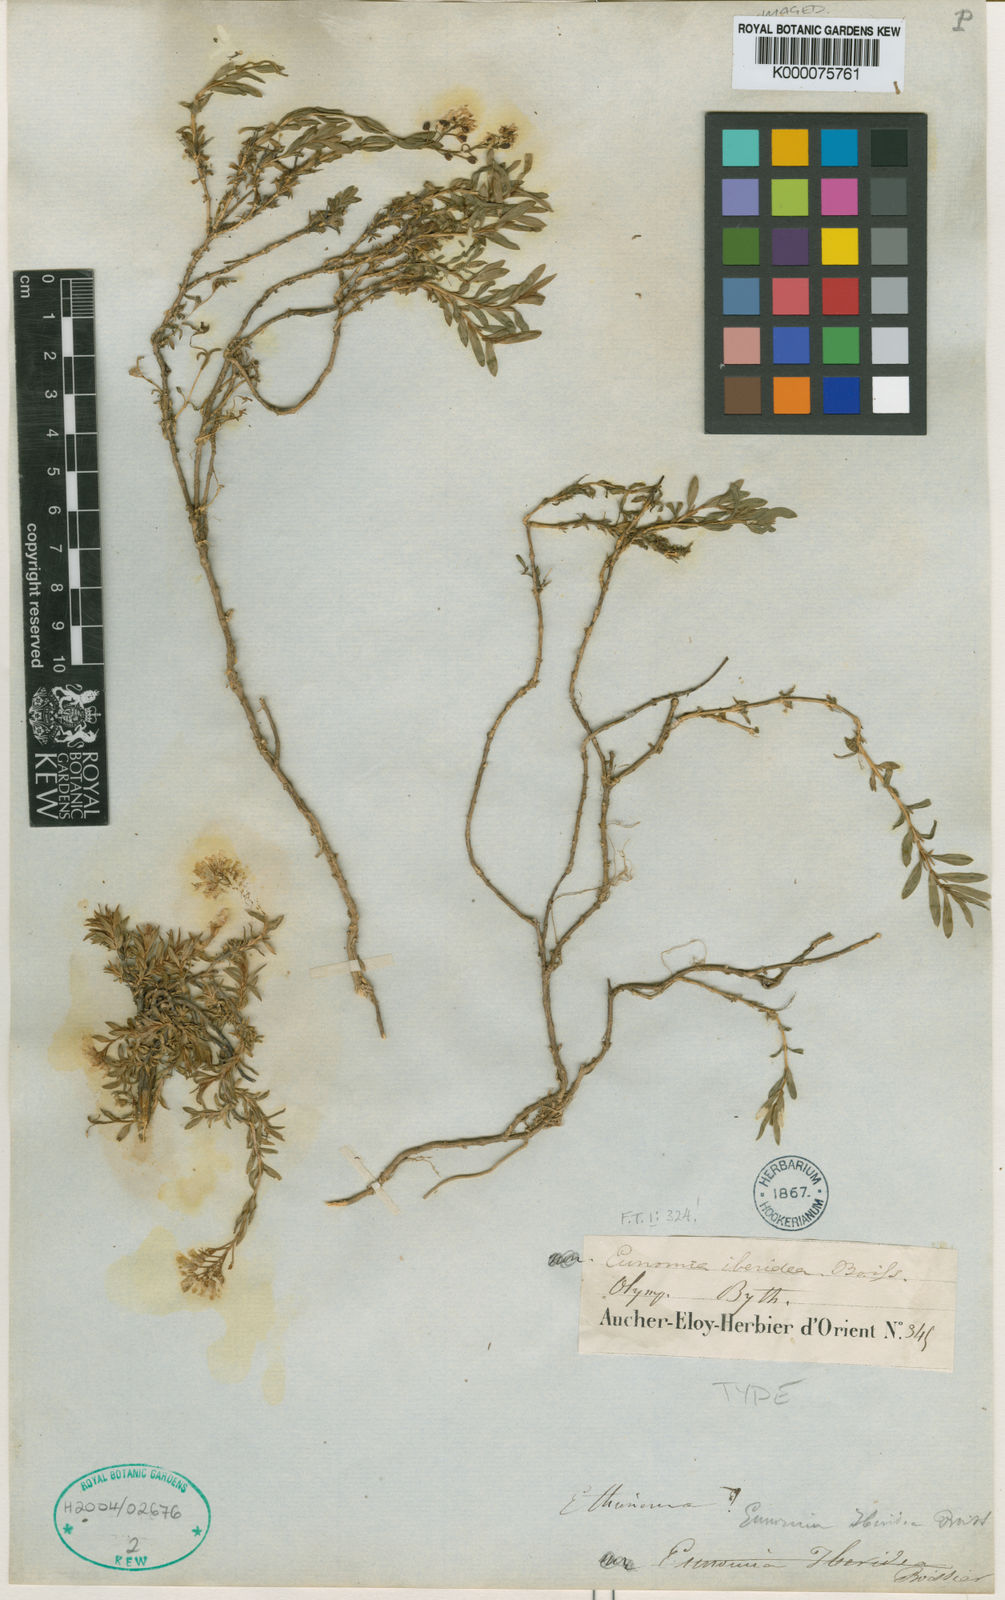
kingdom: Plantae
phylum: Tracheophyta
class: Magnoliopsida
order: Brassicales
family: Brassicaceae
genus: Noccaea
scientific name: Noccaea iberidea
